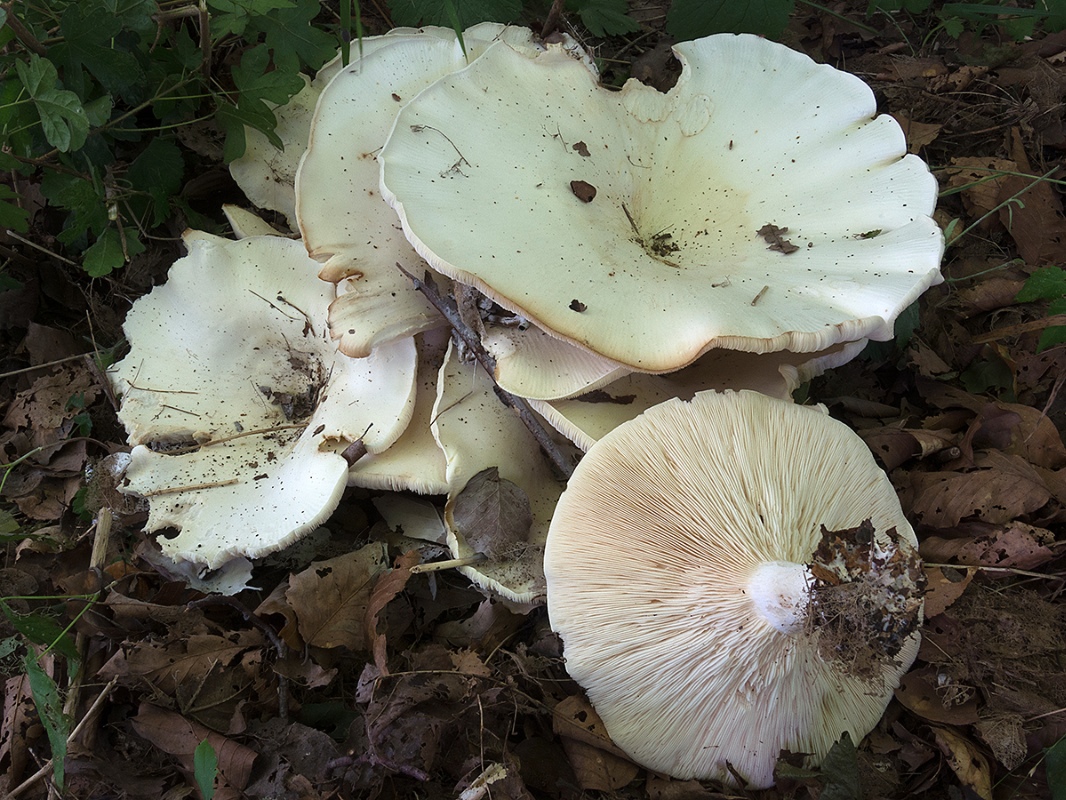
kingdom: Fungi
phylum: Basidiomycota
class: Agaricomycetes
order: Agaricales
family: Tricholomataceae
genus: Aspropaxillus
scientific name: Aspropaxillus giganteus
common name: kæmpe-tragtridderhat
